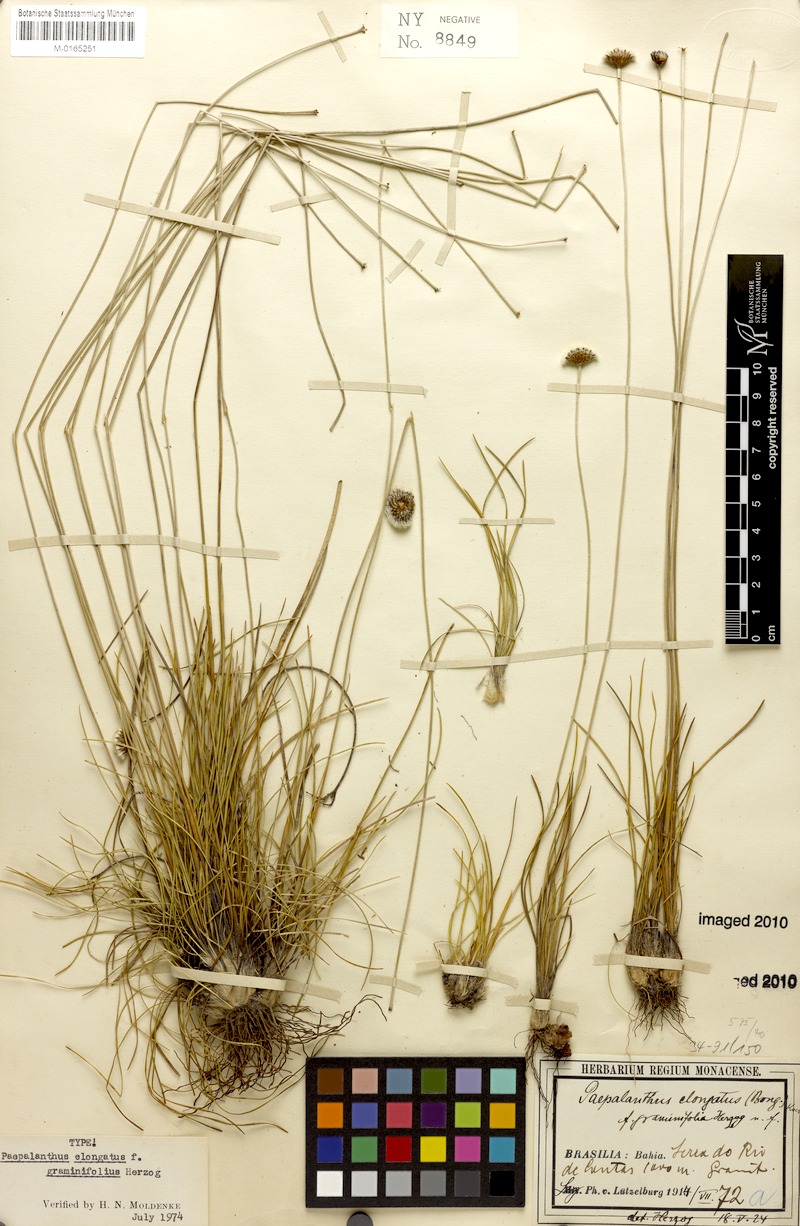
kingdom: Plantae
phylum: Tracheophyta
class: Liliopsida
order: Poales
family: Eriocaulaceae
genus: Paepalanthus
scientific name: Paepalanthus almasensis
